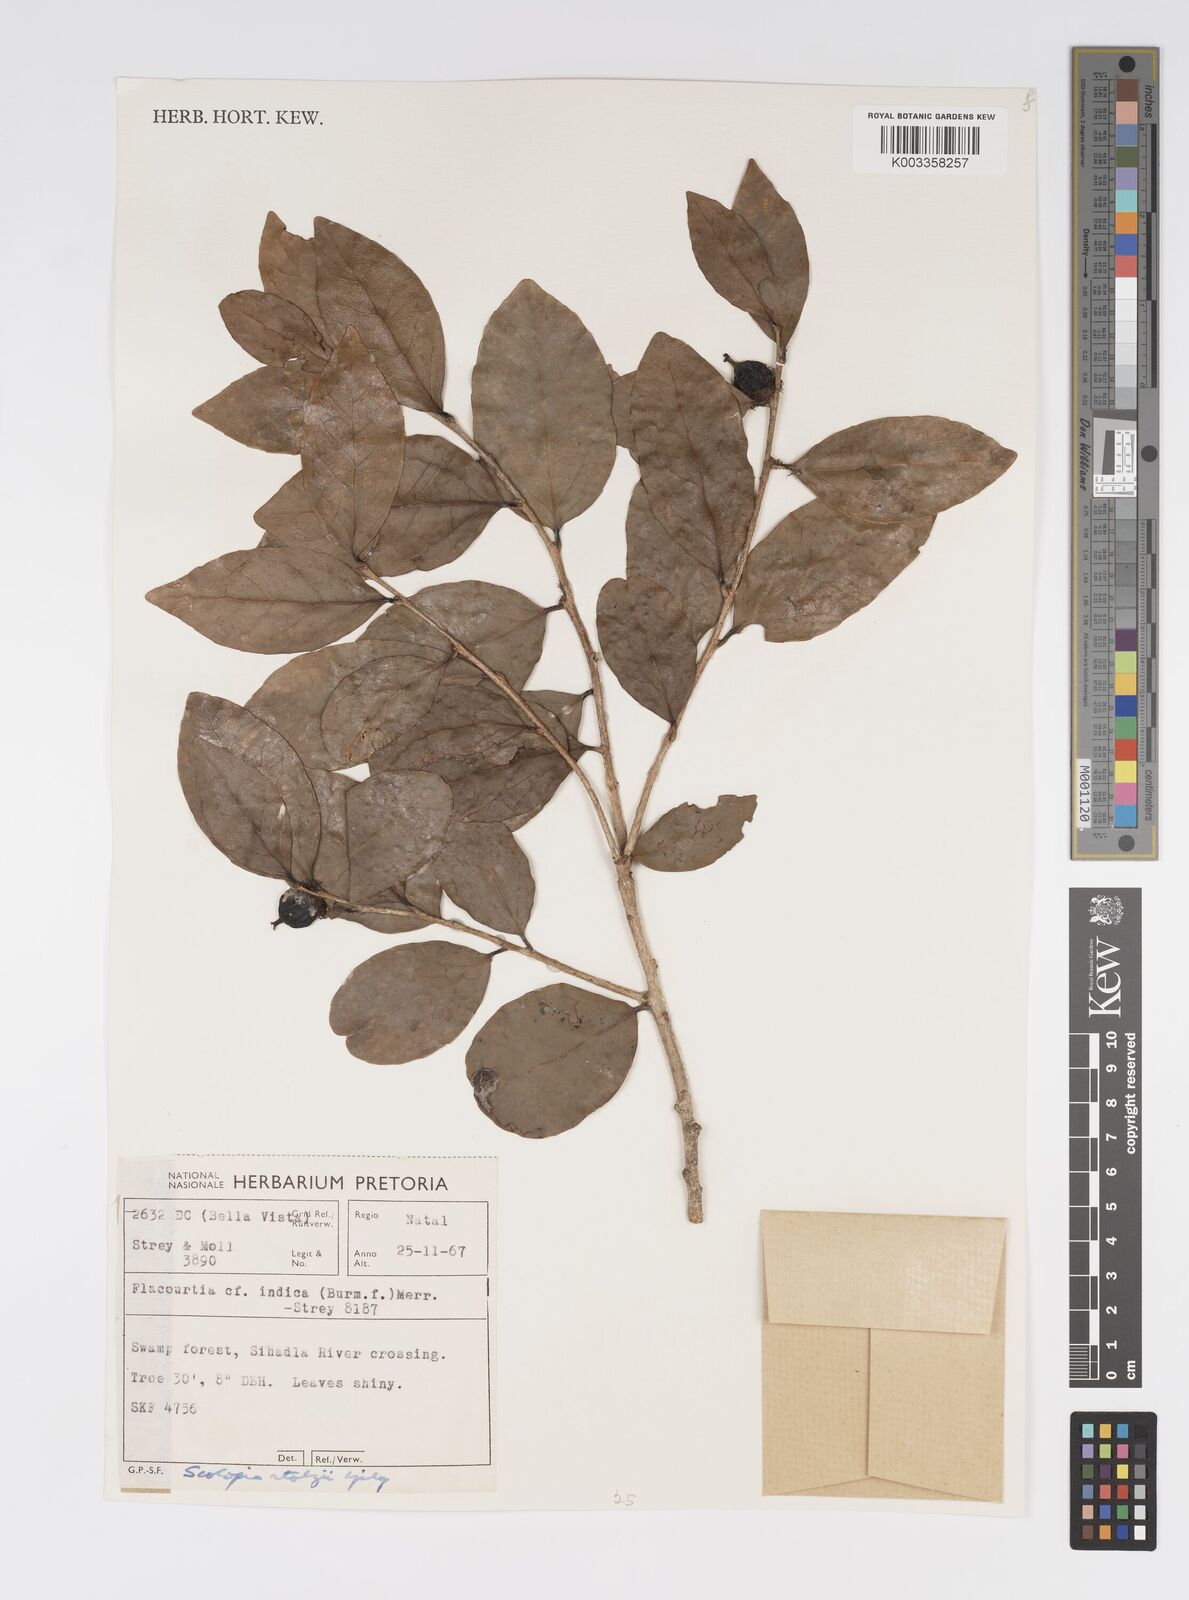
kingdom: Plantae
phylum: Tracheophyta
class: Magnoliopsida
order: Malpighiales
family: Salicaceae
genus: Scolopia
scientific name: Scolopia stolzii
